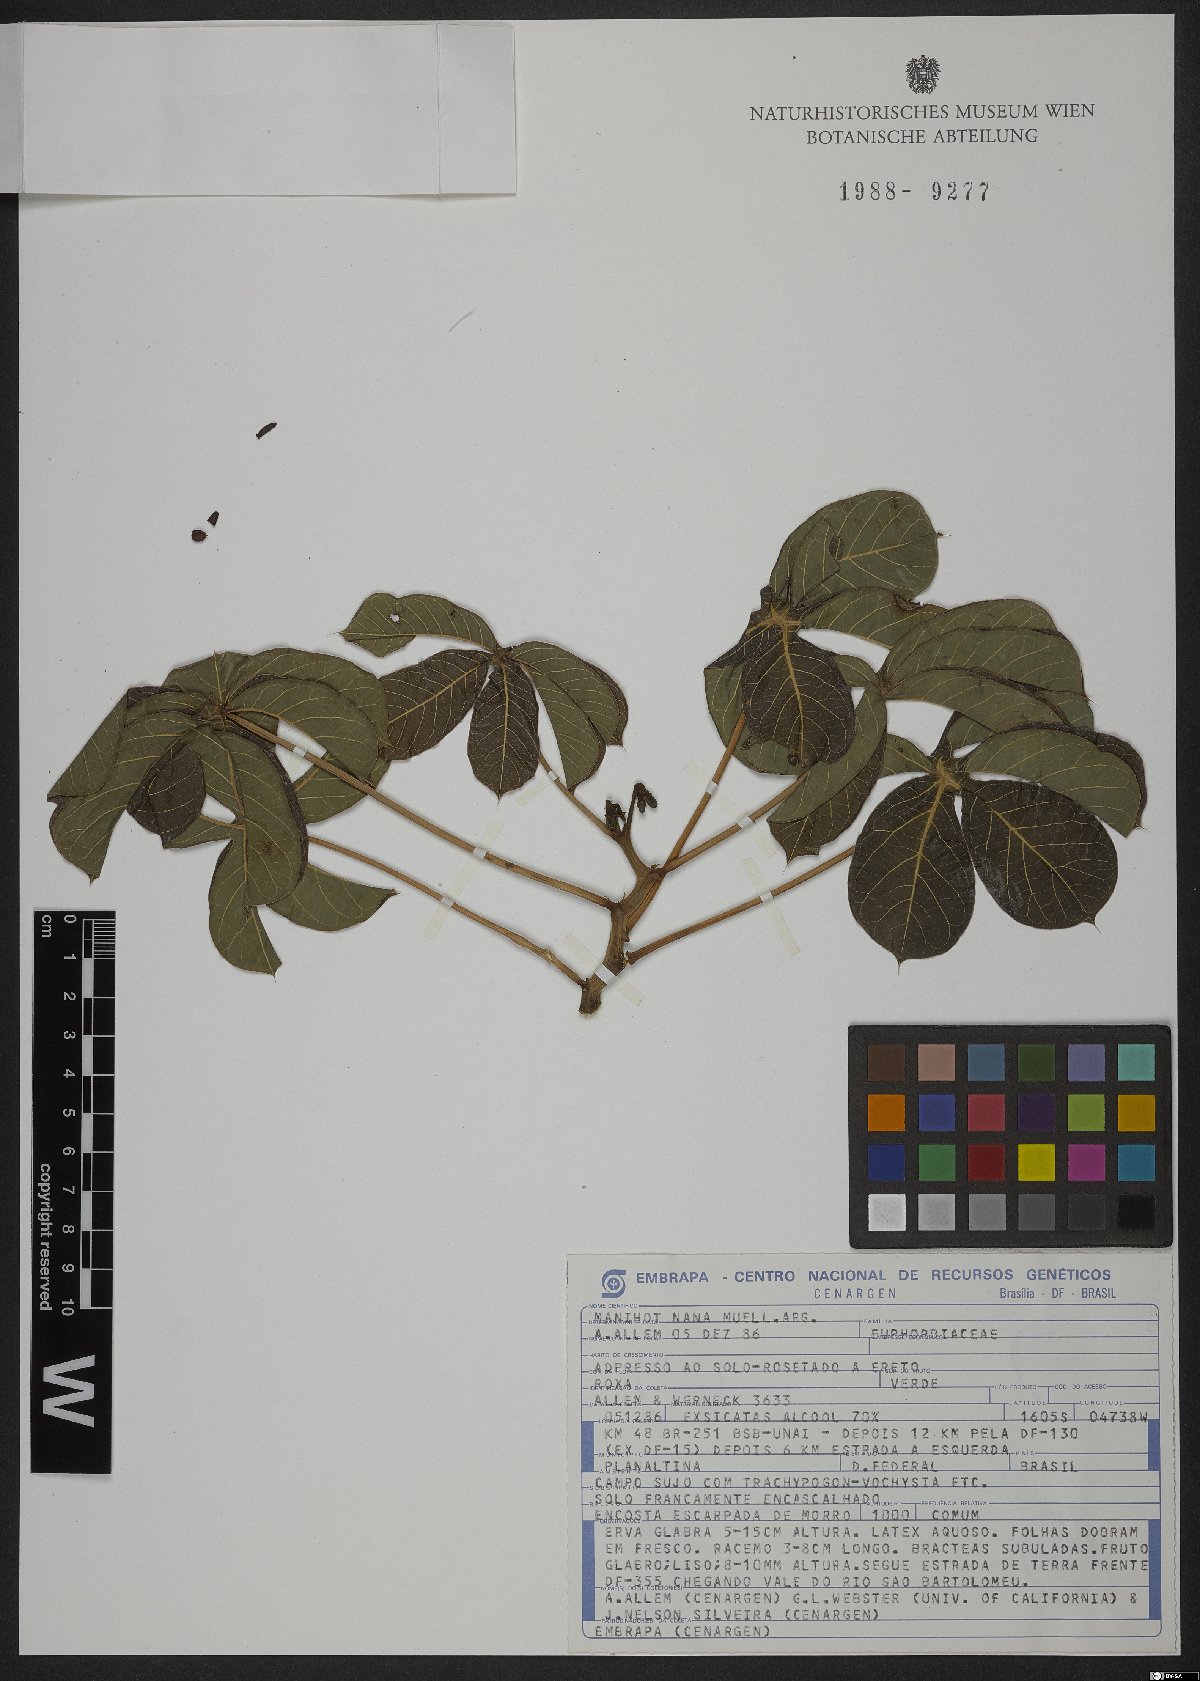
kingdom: Plantae
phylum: Tracheophyta
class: Magnoliopsida
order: Malpighiales
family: Euphorbiaceae
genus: Manihot
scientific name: Manihot nana
